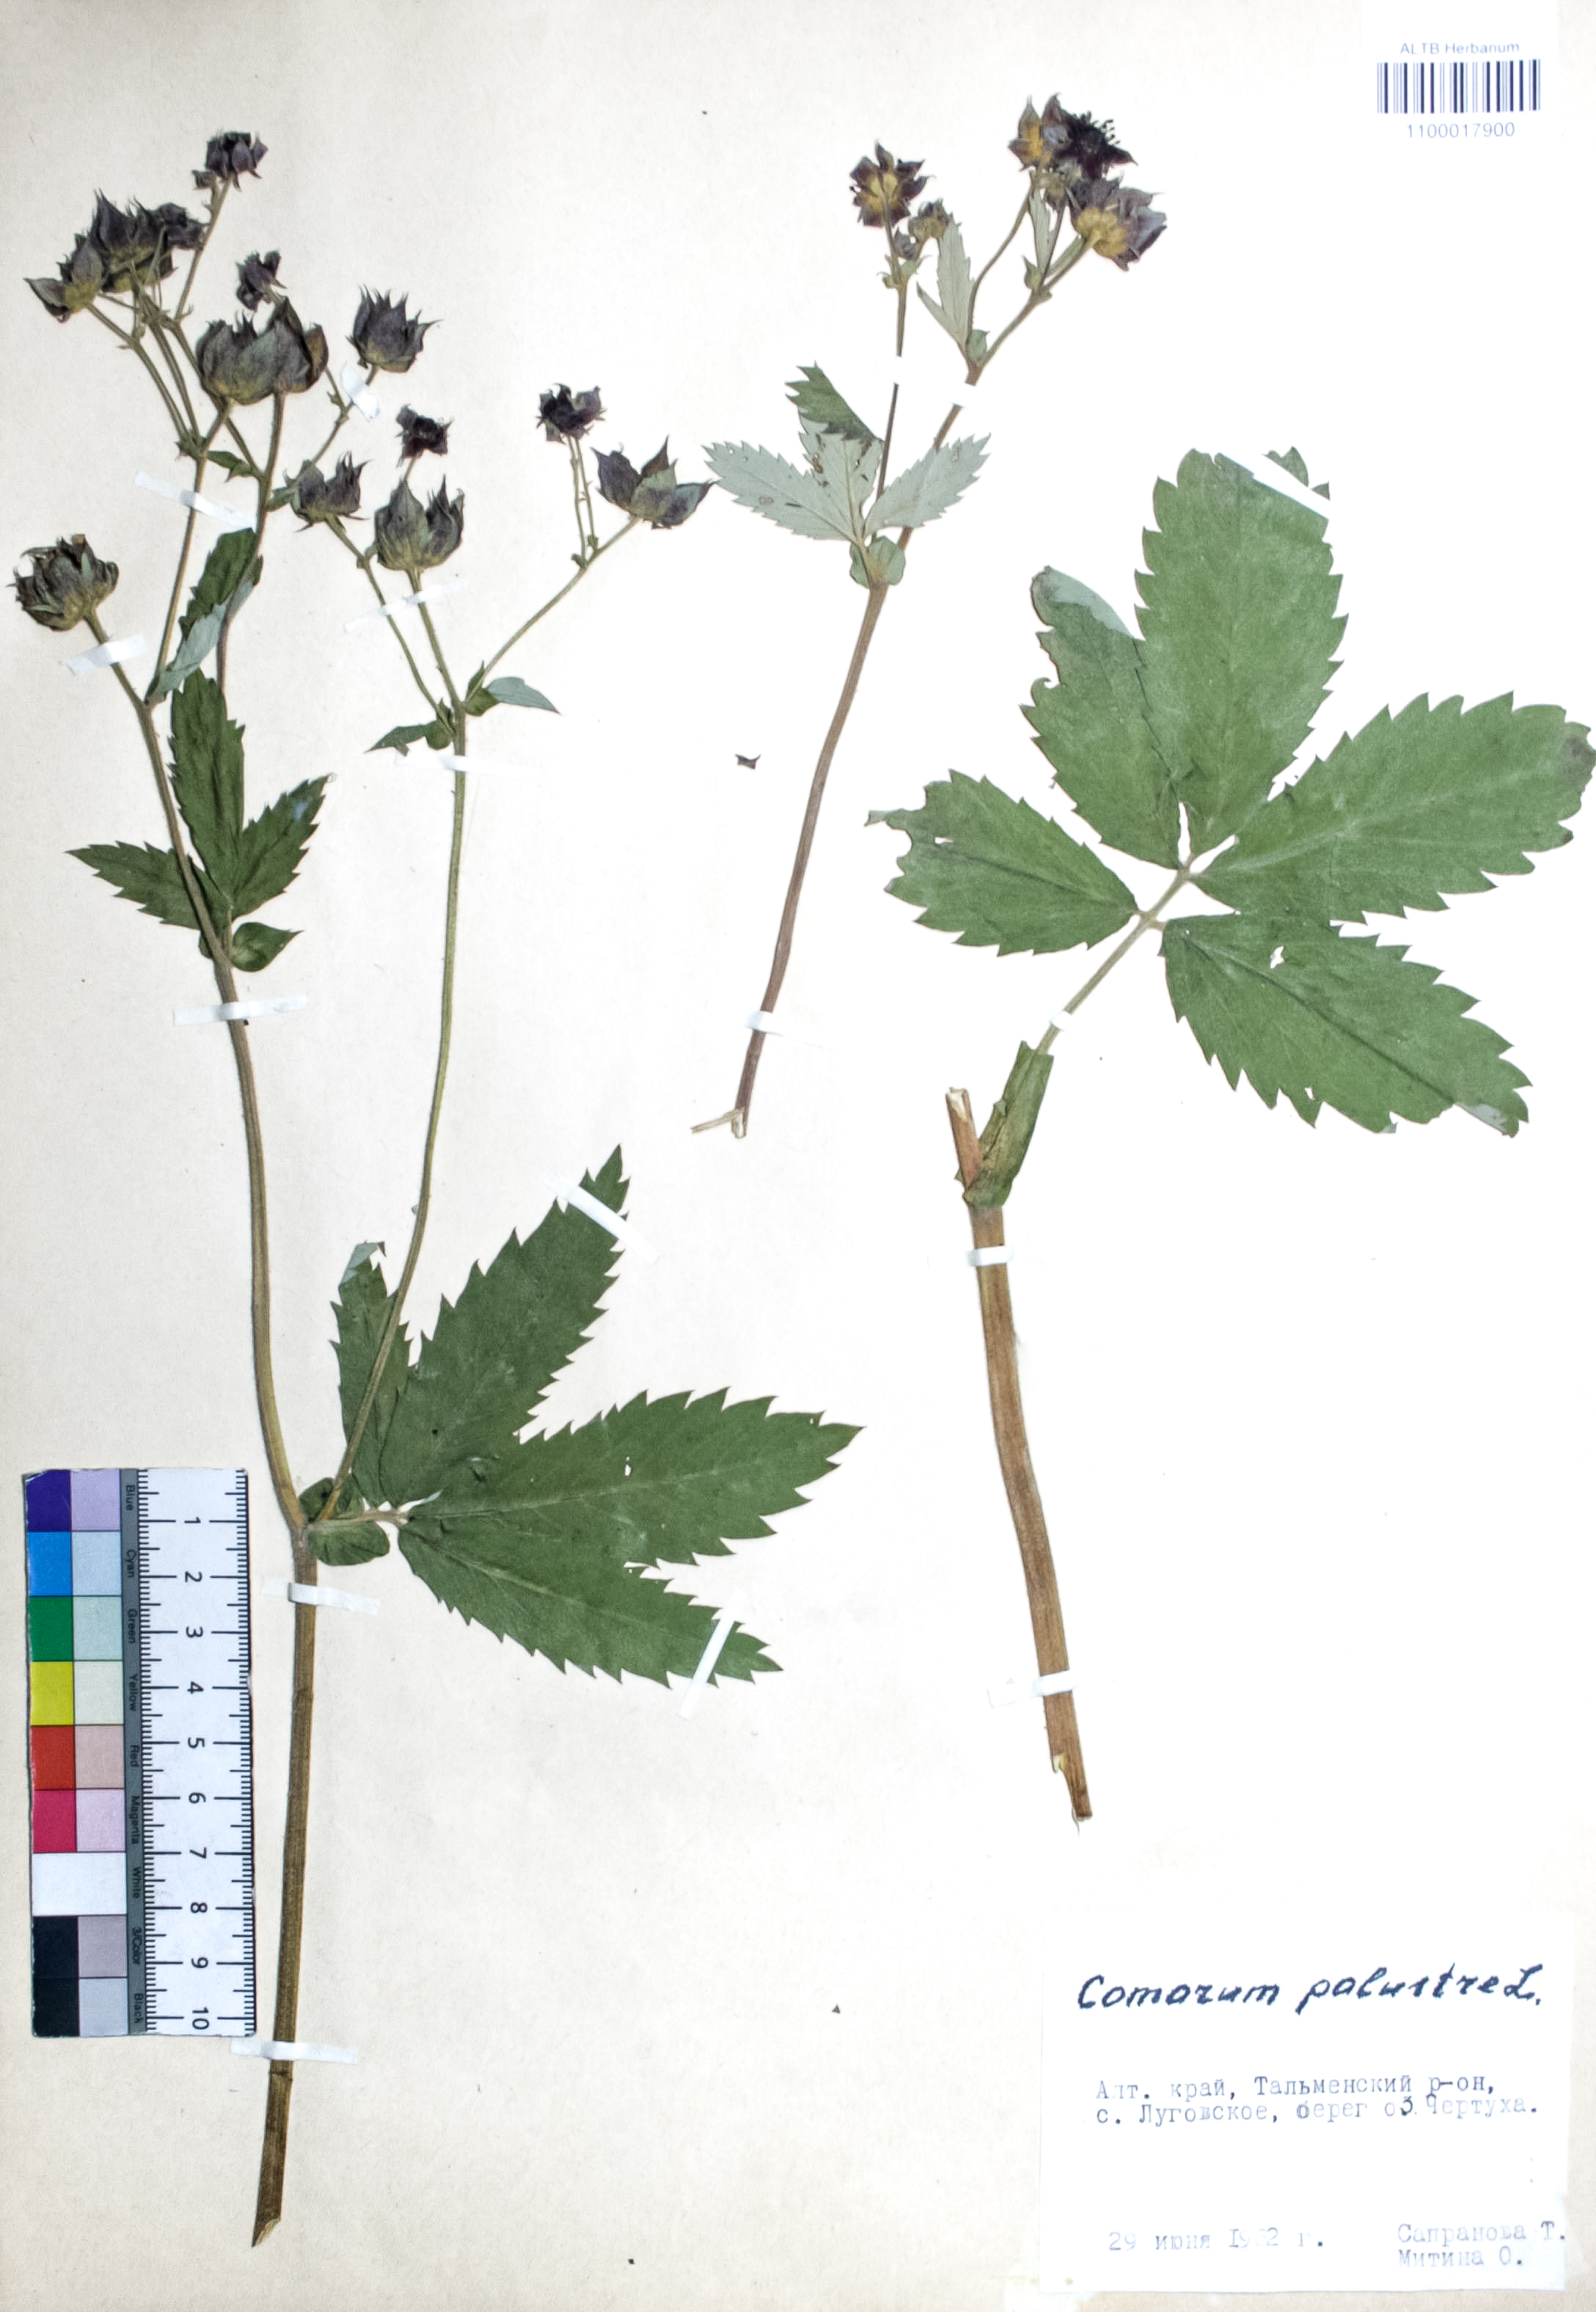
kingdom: Plantae
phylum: Tracheophyta
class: Magnoliopsida
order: Rosales
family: Rosaceae
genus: Comarum
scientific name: Comarum palustre
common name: Marsh cinquefoil
